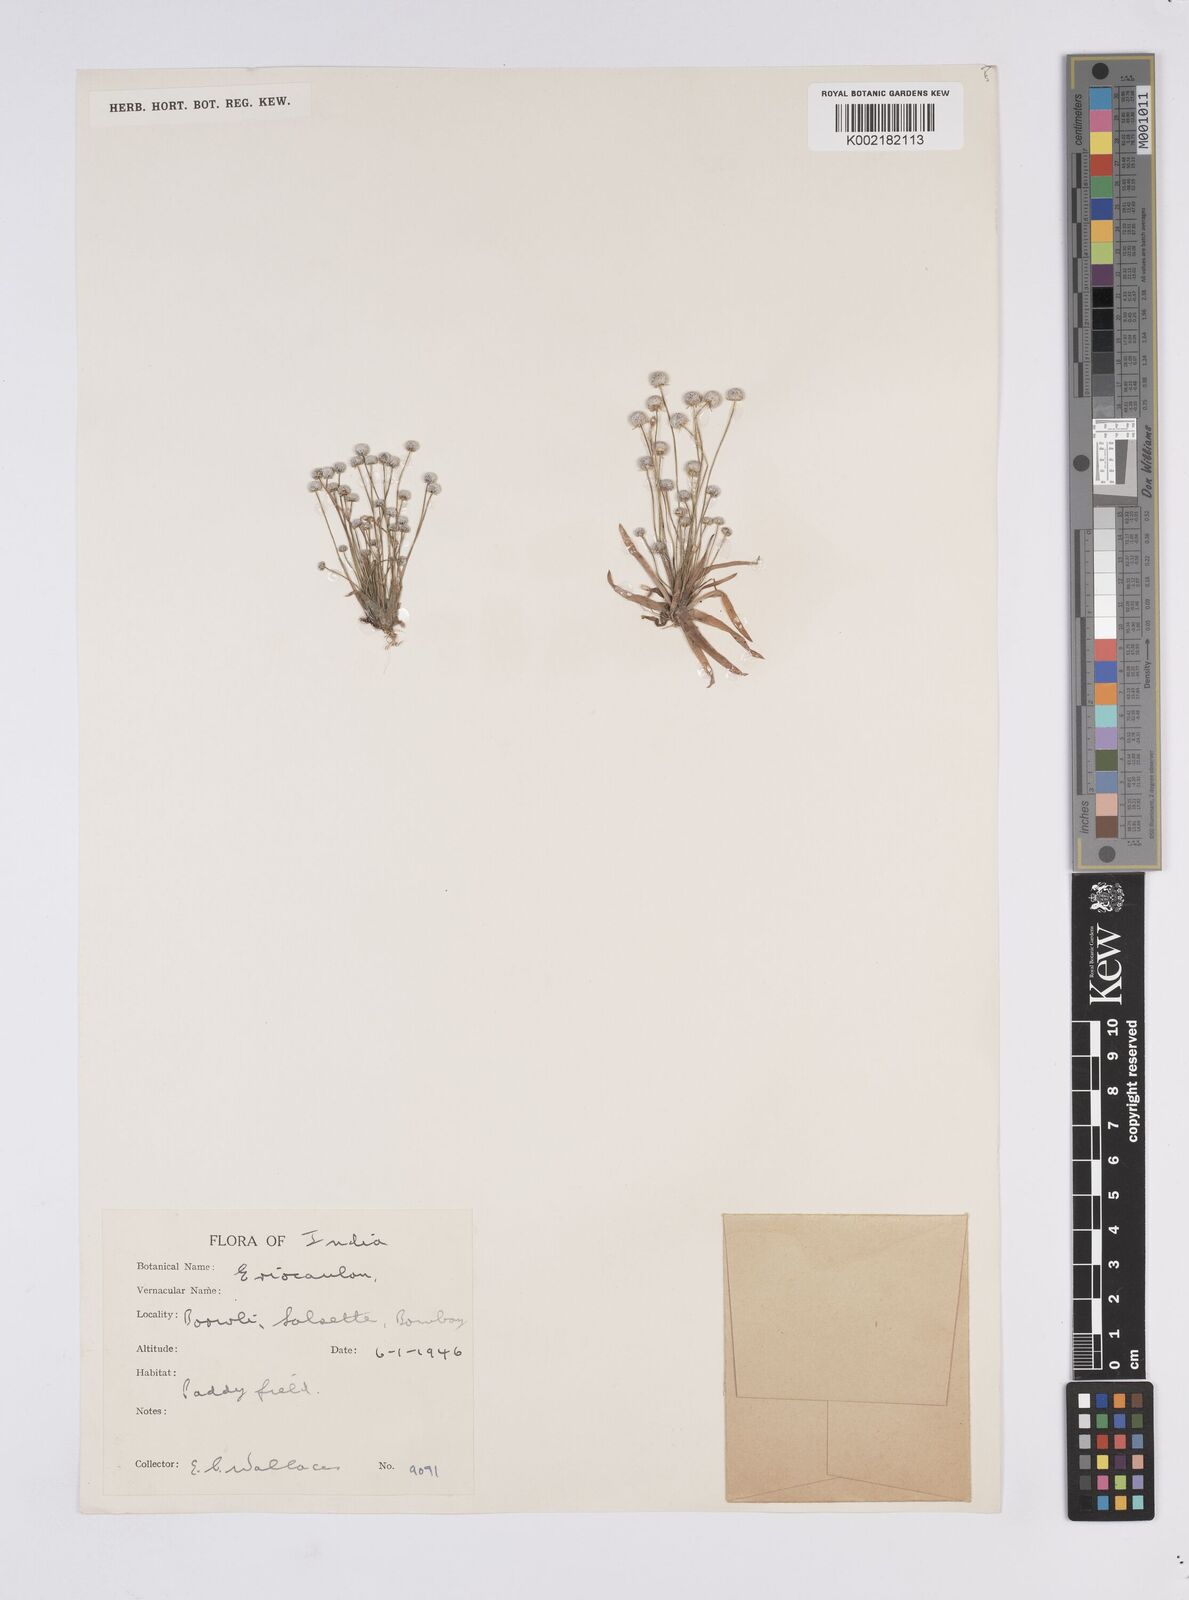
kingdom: Plantae
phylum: Tracheophyta
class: Liliopsida
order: Poales
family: Eriocaulaceae
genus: Eriocaulon
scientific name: Eriocaulon
